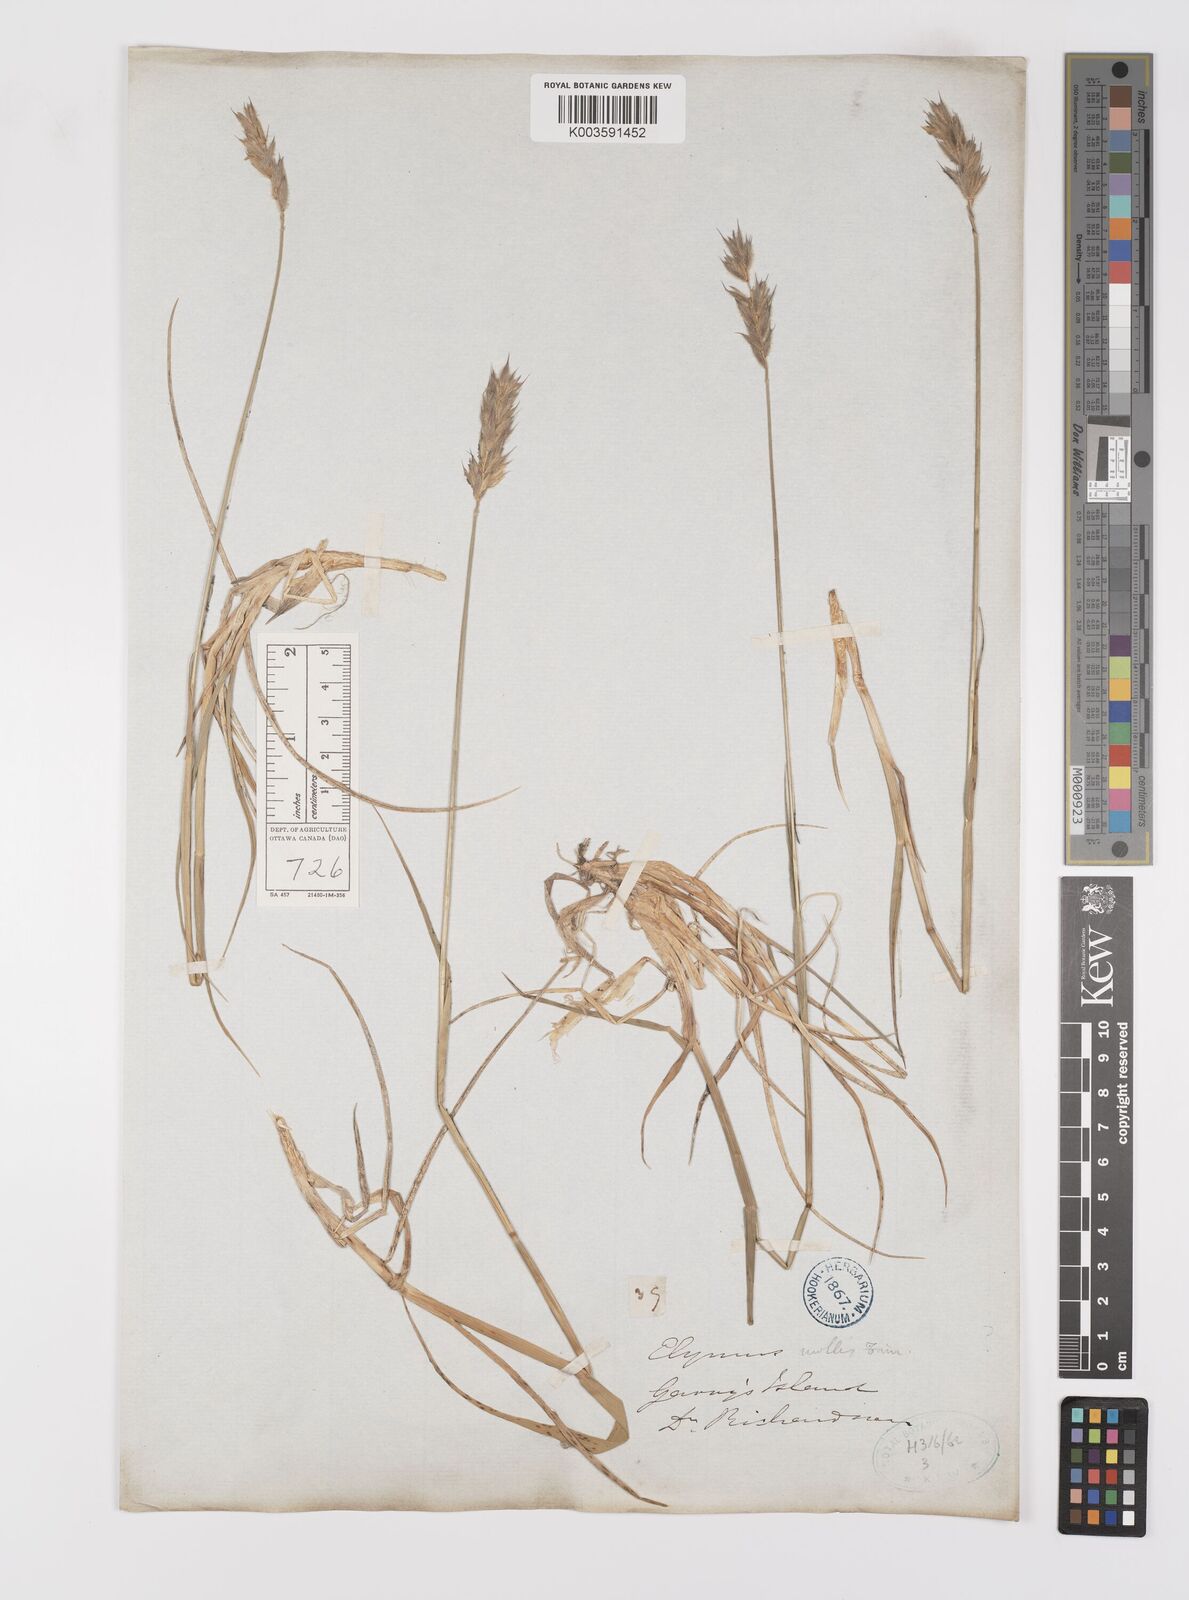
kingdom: Plantae
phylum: Tracheophyta
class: Liliopsida
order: Poales
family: Poaceae
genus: Leymus
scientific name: Leymus mollis
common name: American dune grass
